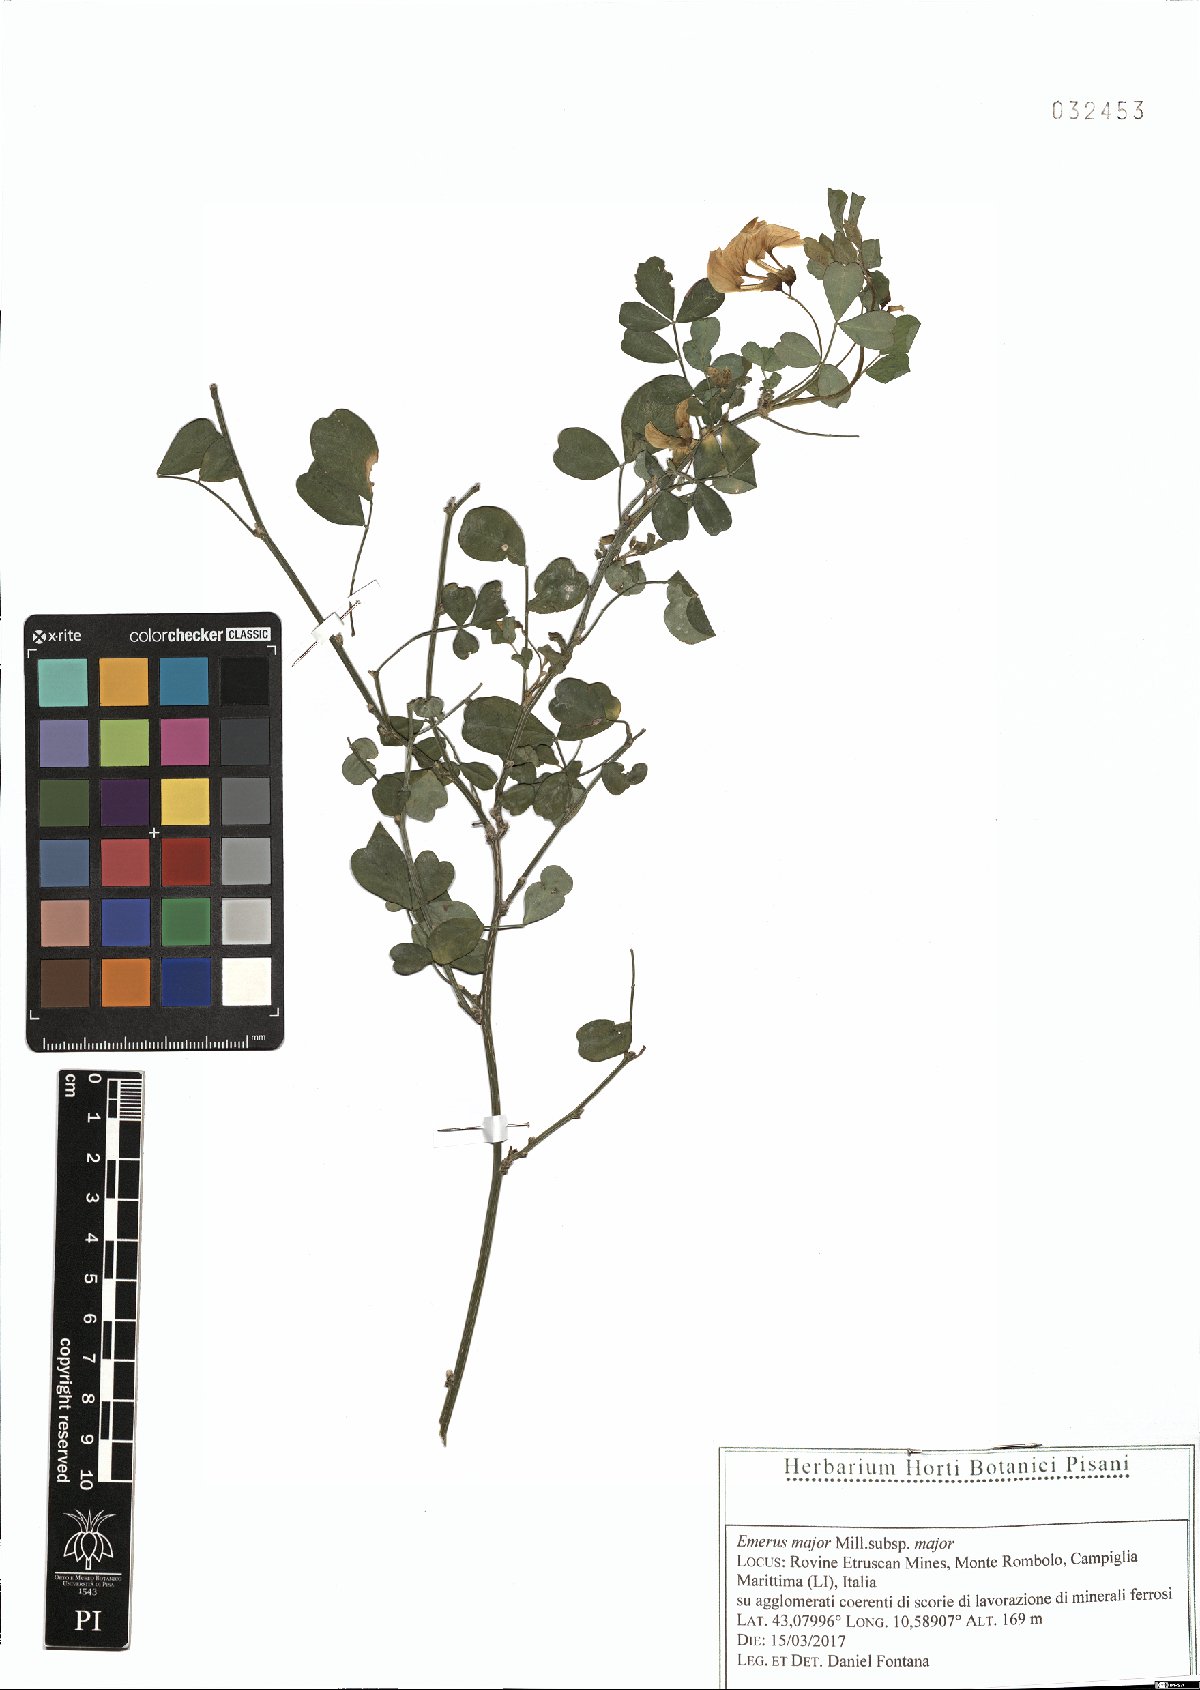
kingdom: Plantae
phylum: Tracheophyta
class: Magnoliopsida
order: Fabales
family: Fabaceae
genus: Hippocrepis
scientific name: Hippocrepis emerus
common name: Scorpion senna
